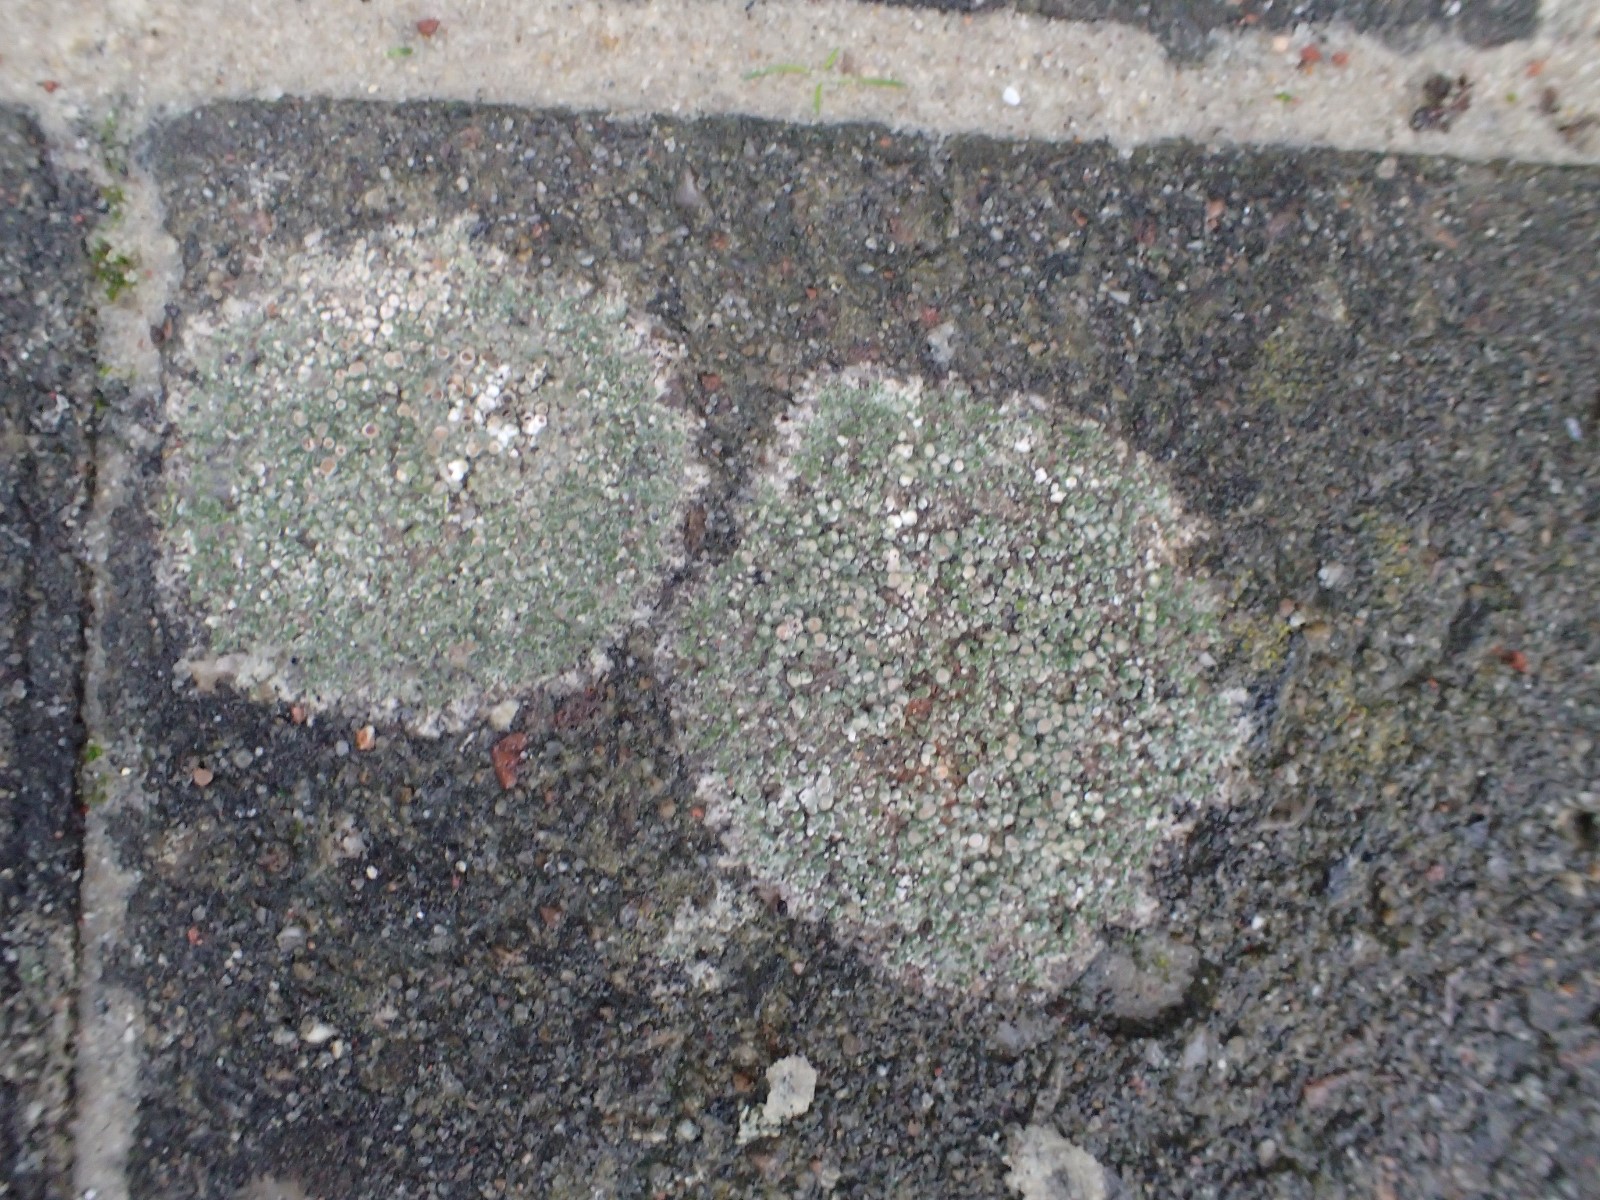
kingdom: Fungi
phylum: Ascomycota
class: Lecanoromycetes
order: Lecanorales
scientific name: Lecanorales
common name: skivelavordenen
